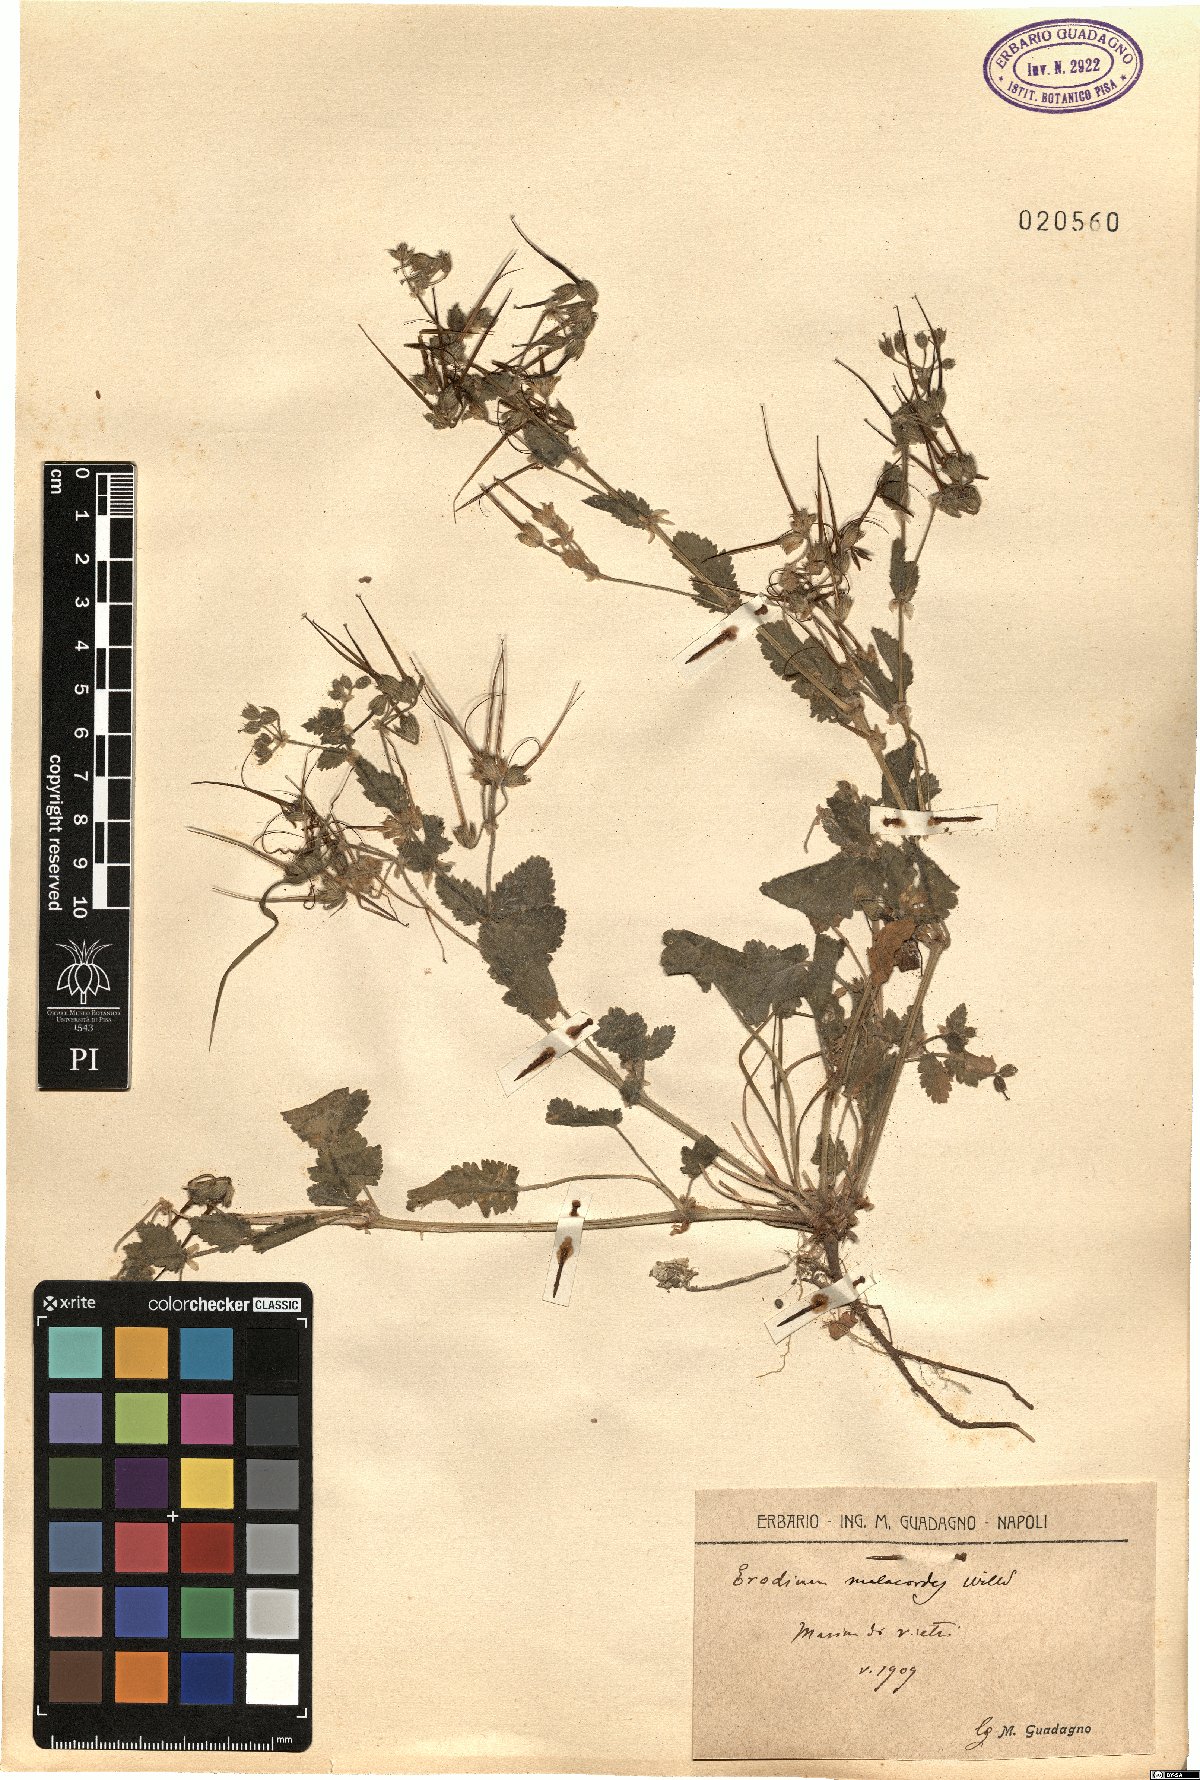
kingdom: Plantae
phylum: Tracheophyta
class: Magnoliopsida
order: Geraniales
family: Geraniaceae
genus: Erodium
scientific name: Erodium malacoides
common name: Soft stork's-bill
